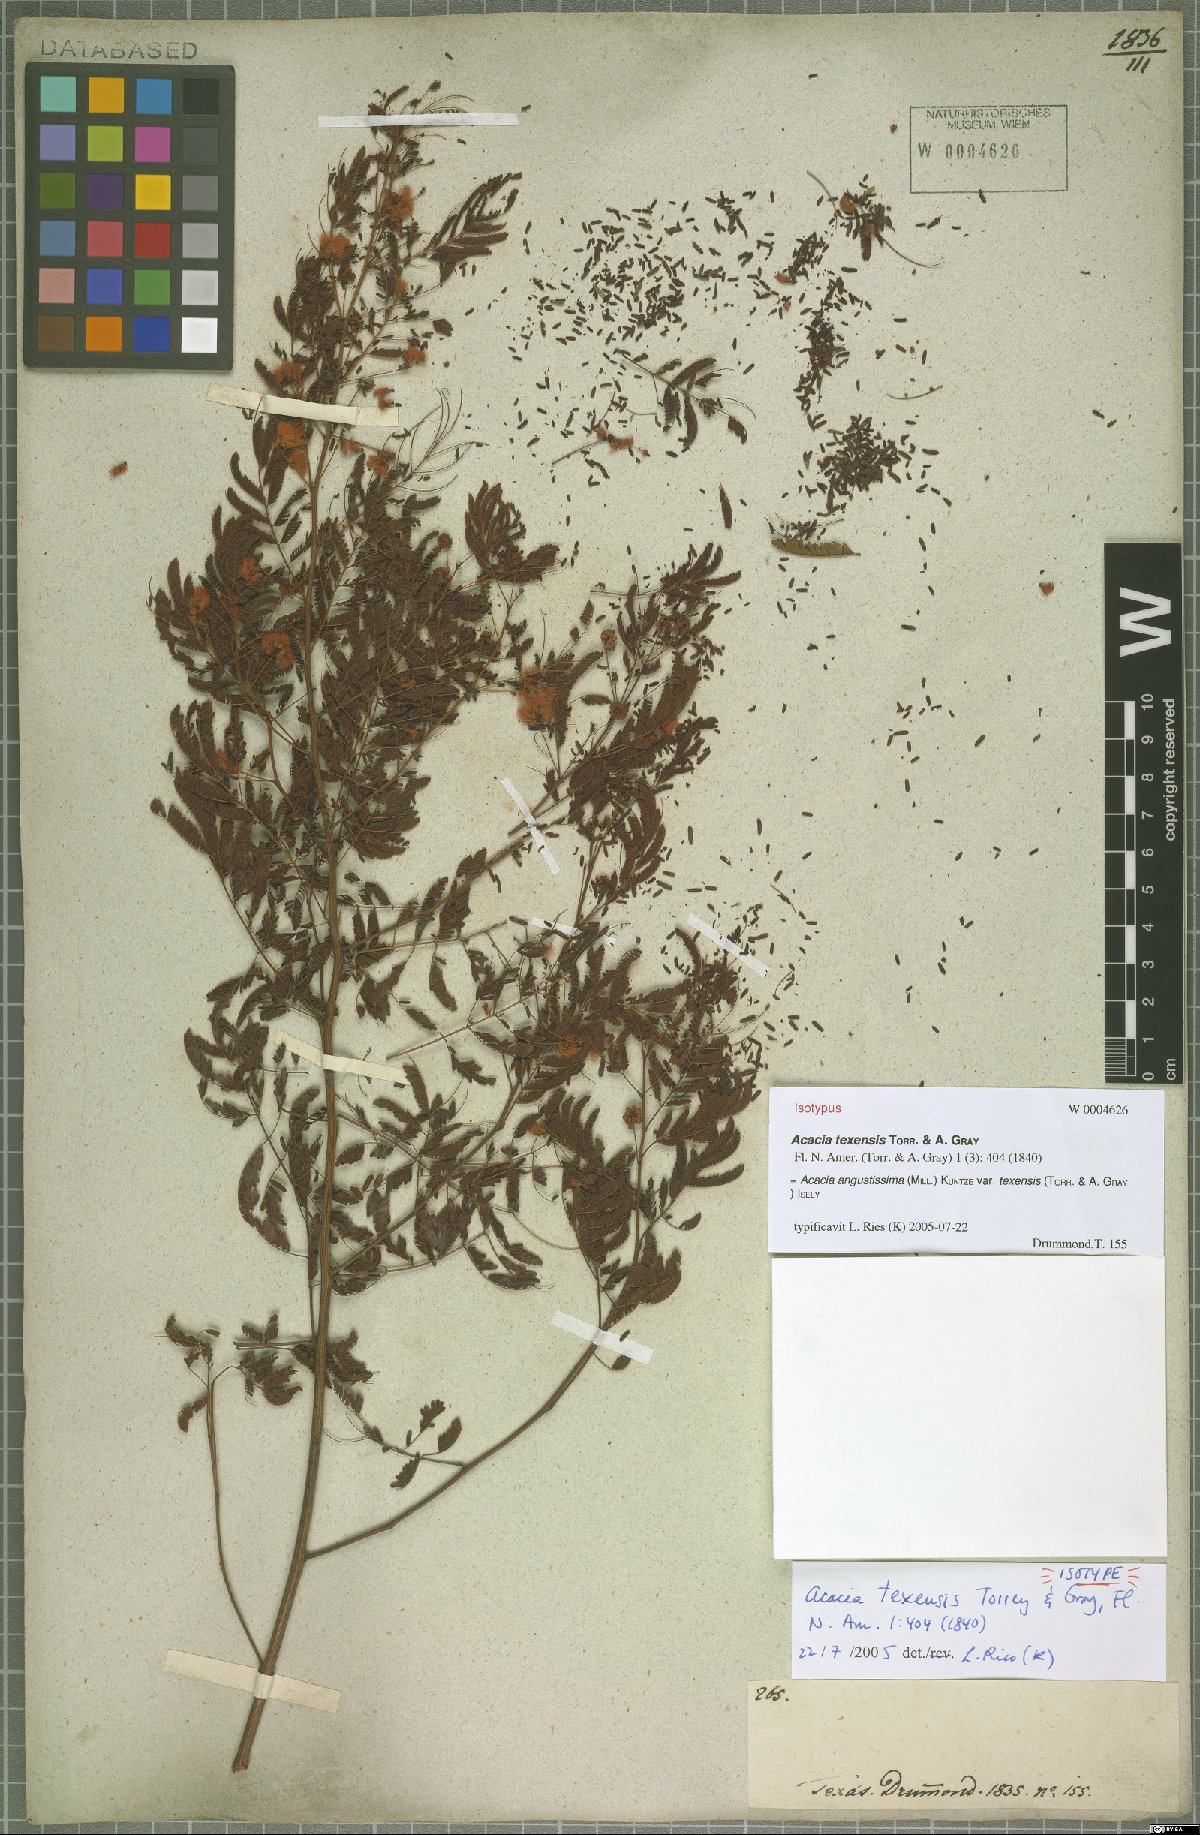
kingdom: Plantae
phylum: Tracheophyta
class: Magnoliopsida
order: Fabales
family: Fabaceae
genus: Acaciella
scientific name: Acaciella angustissima
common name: Prairie acacia
